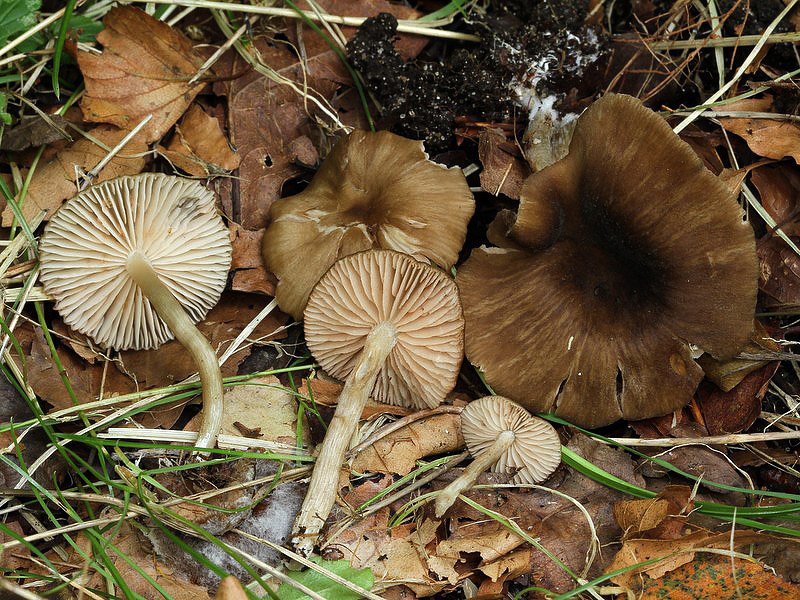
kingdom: Fungi
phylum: Basidiomycota
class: Agaricomycetes
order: Agaricales
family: Entolomataceae
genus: Entoloma
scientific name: Entoloma sordidulum
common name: smudsig rødblad
